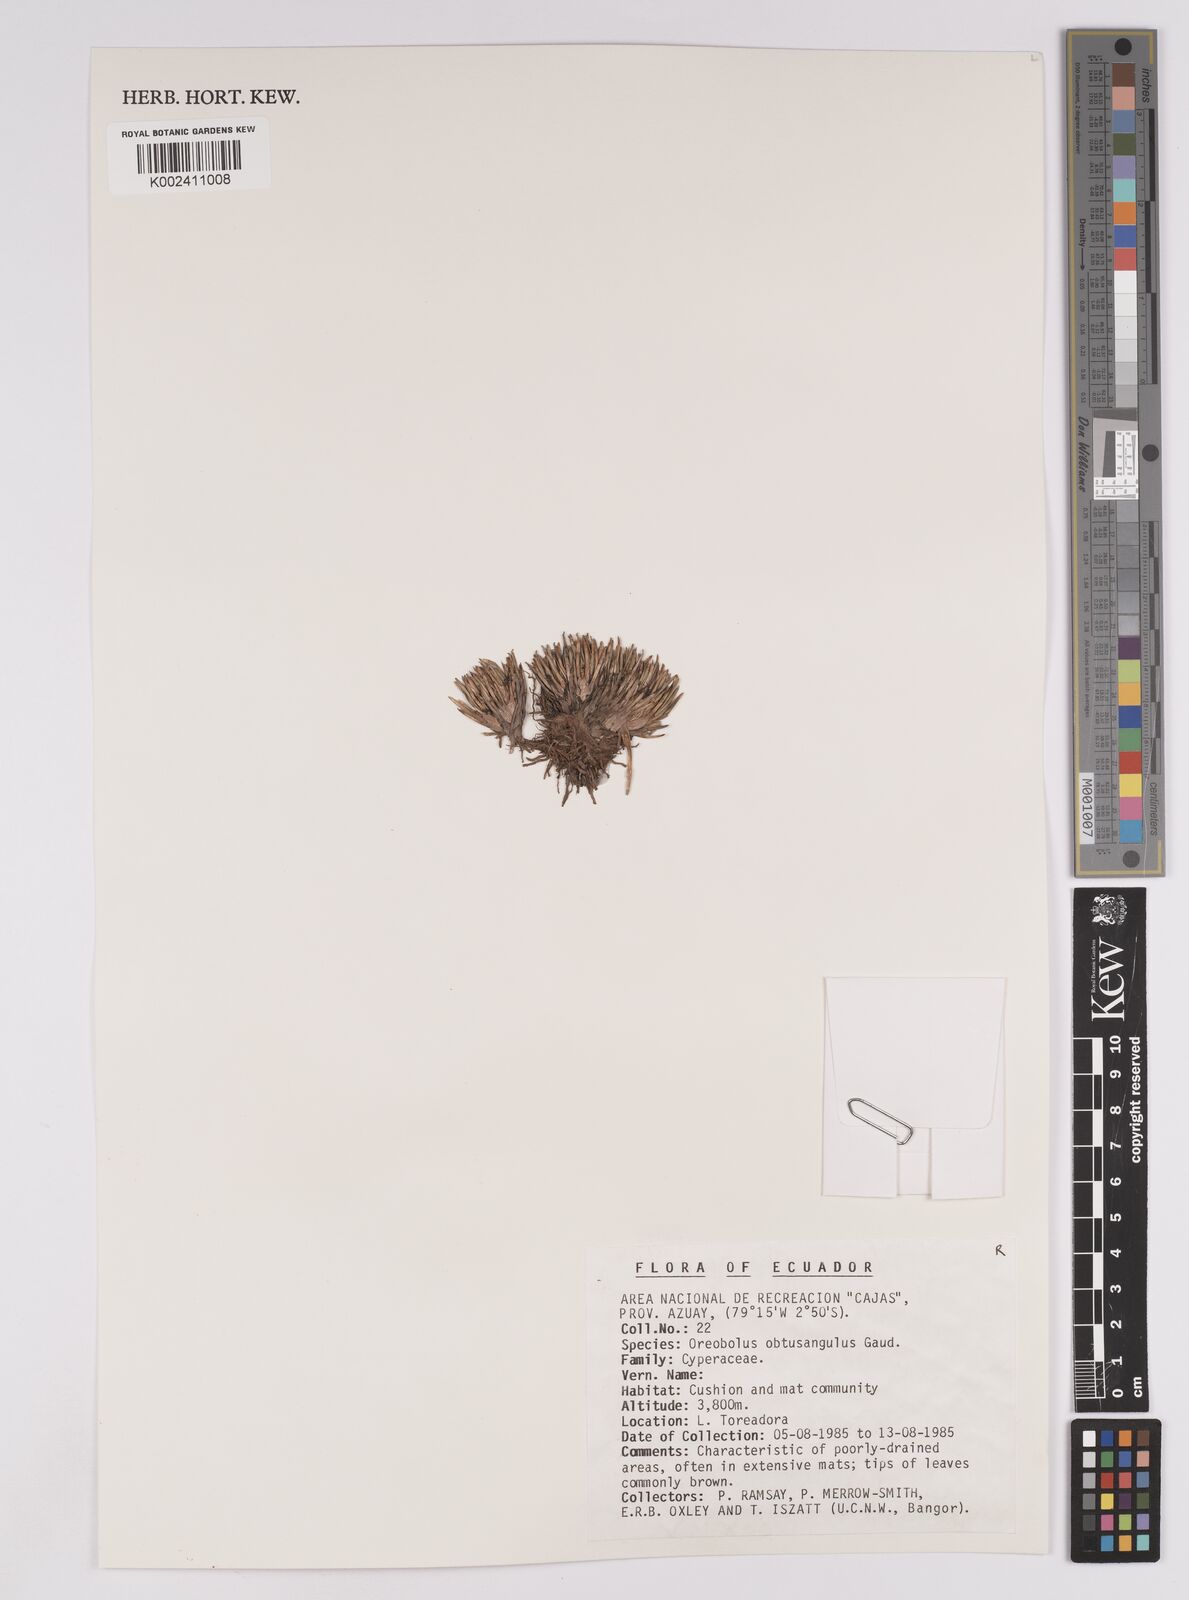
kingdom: Plantae
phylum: Tracheophyta
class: Liliopsida
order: Poales
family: Cyperaceae
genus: Oreobolus
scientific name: Oreobolus obtusangulus
